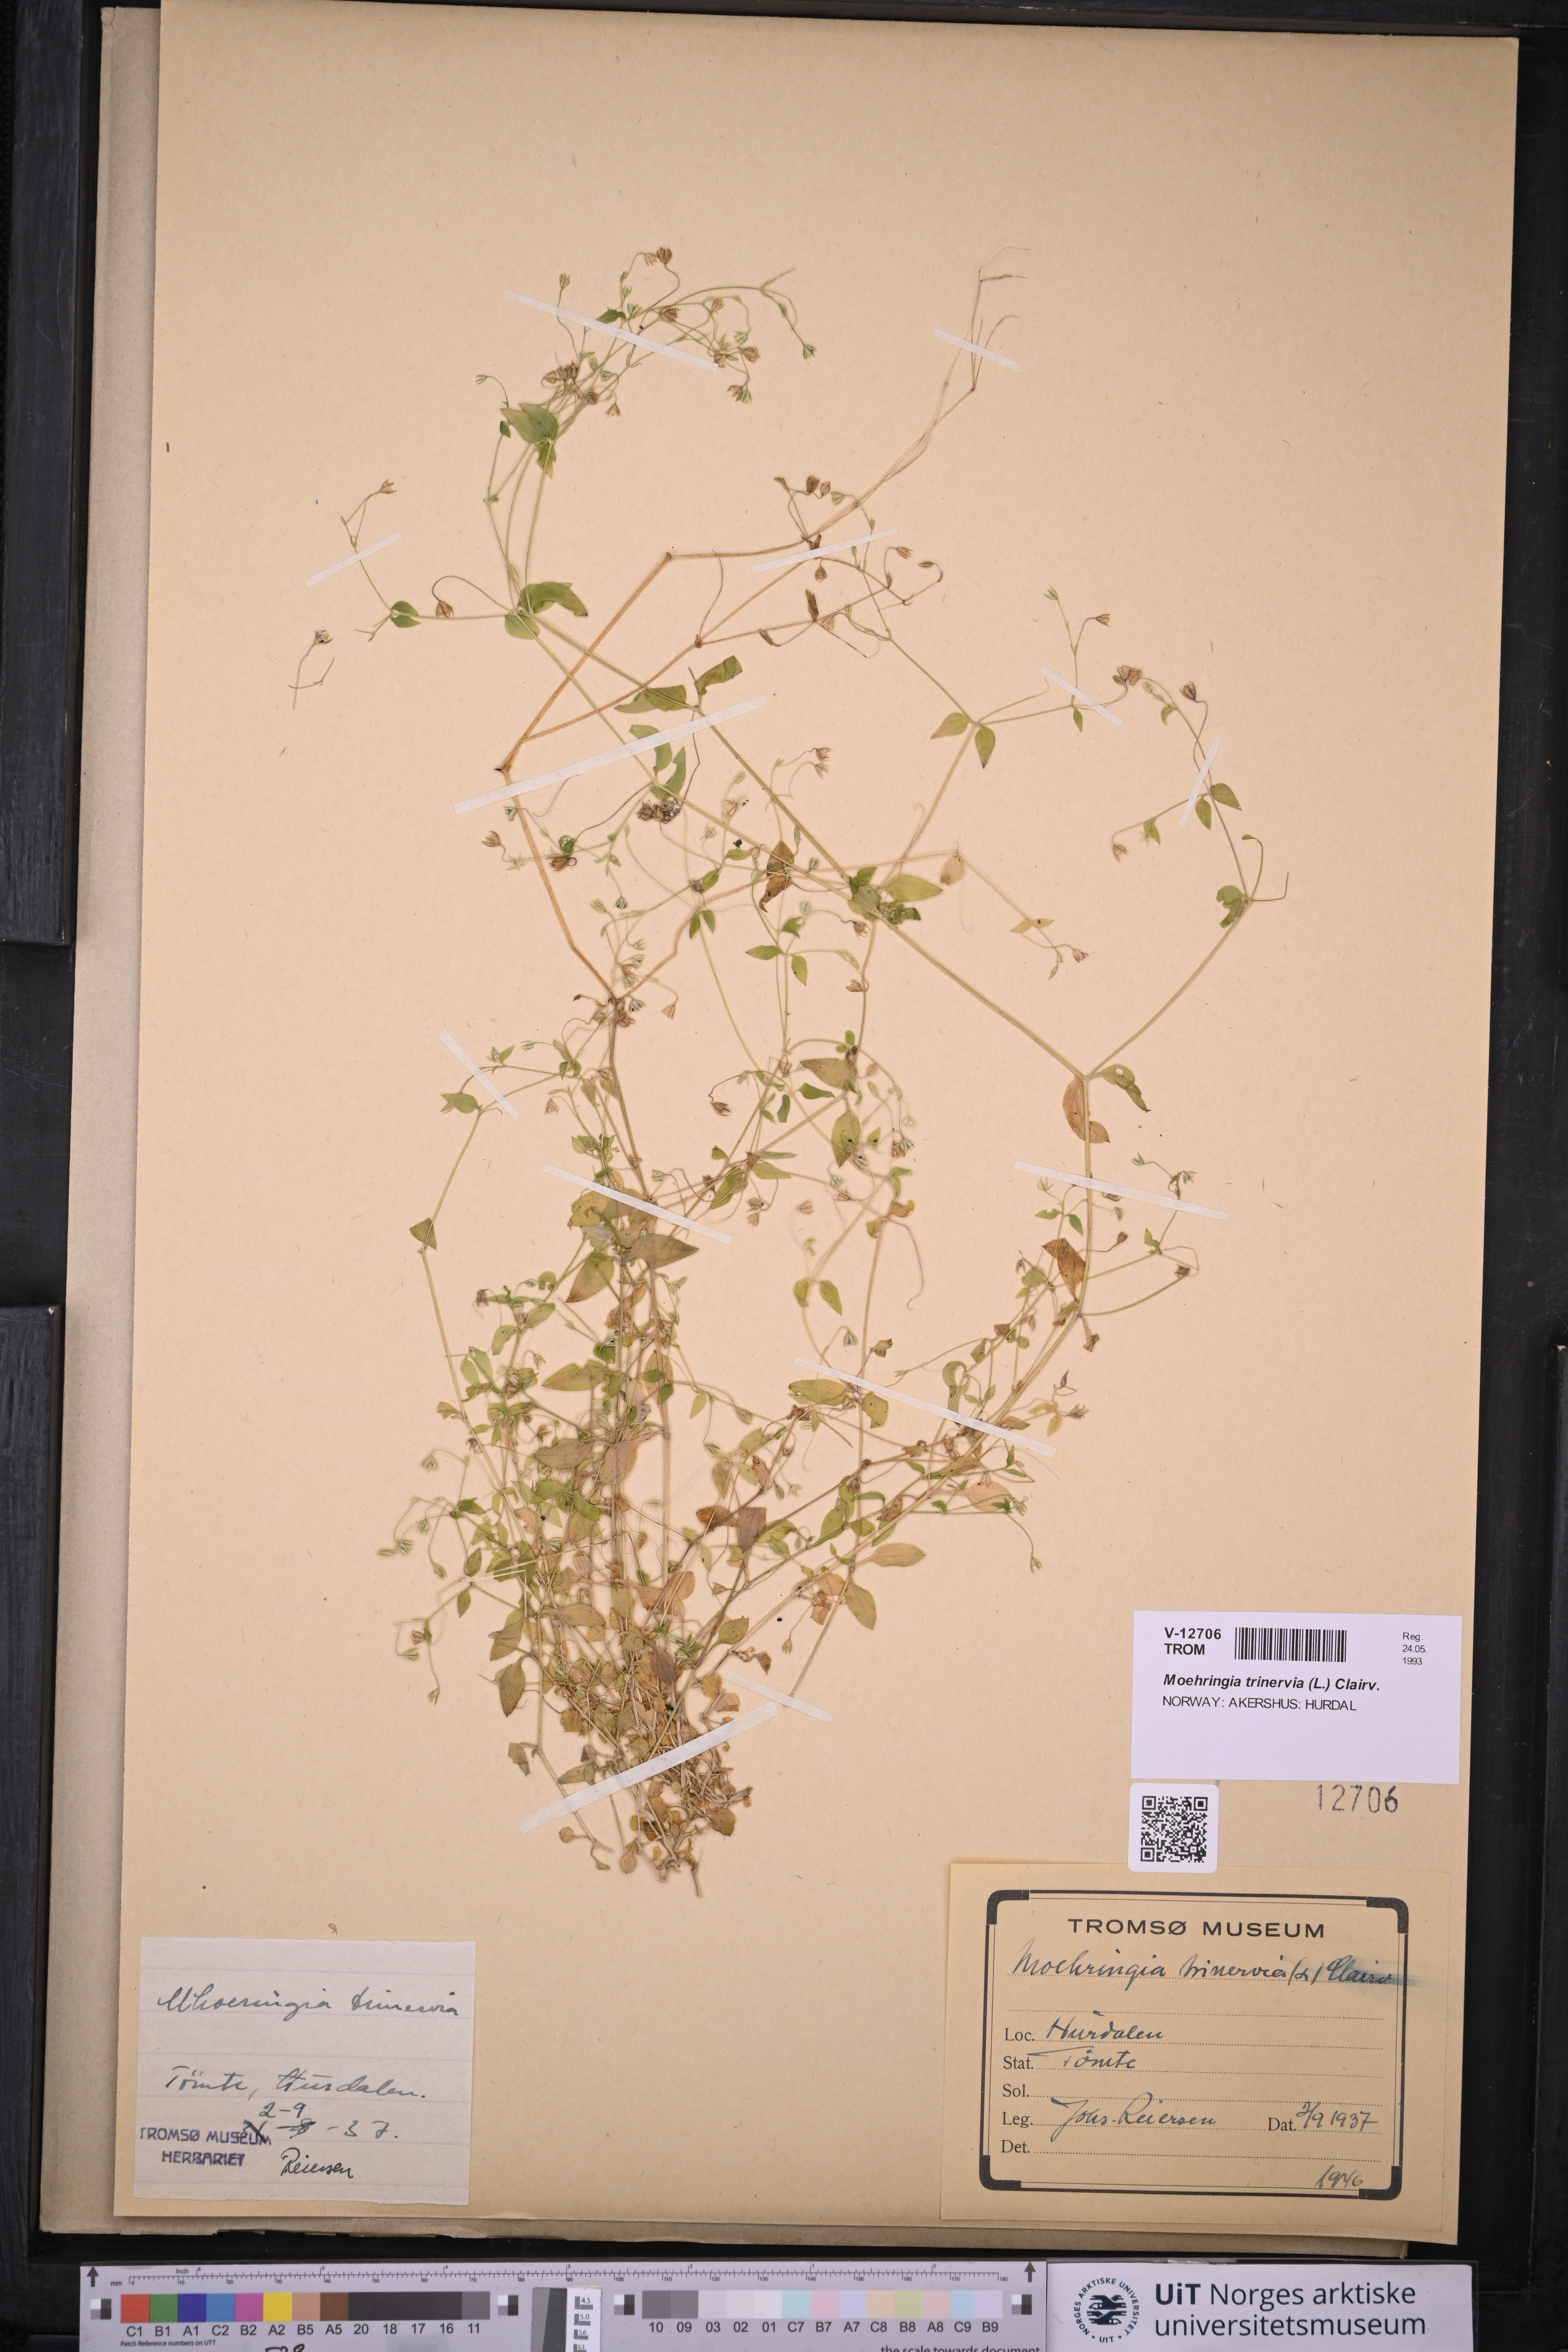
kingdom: Plantae
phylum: Tracheophyta
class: Magnoliopsida
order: Caryophyllales
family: Caryophyllaceae
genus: Moehringia
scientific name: Moehringia trinervia
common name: Three-nerved sandwort
